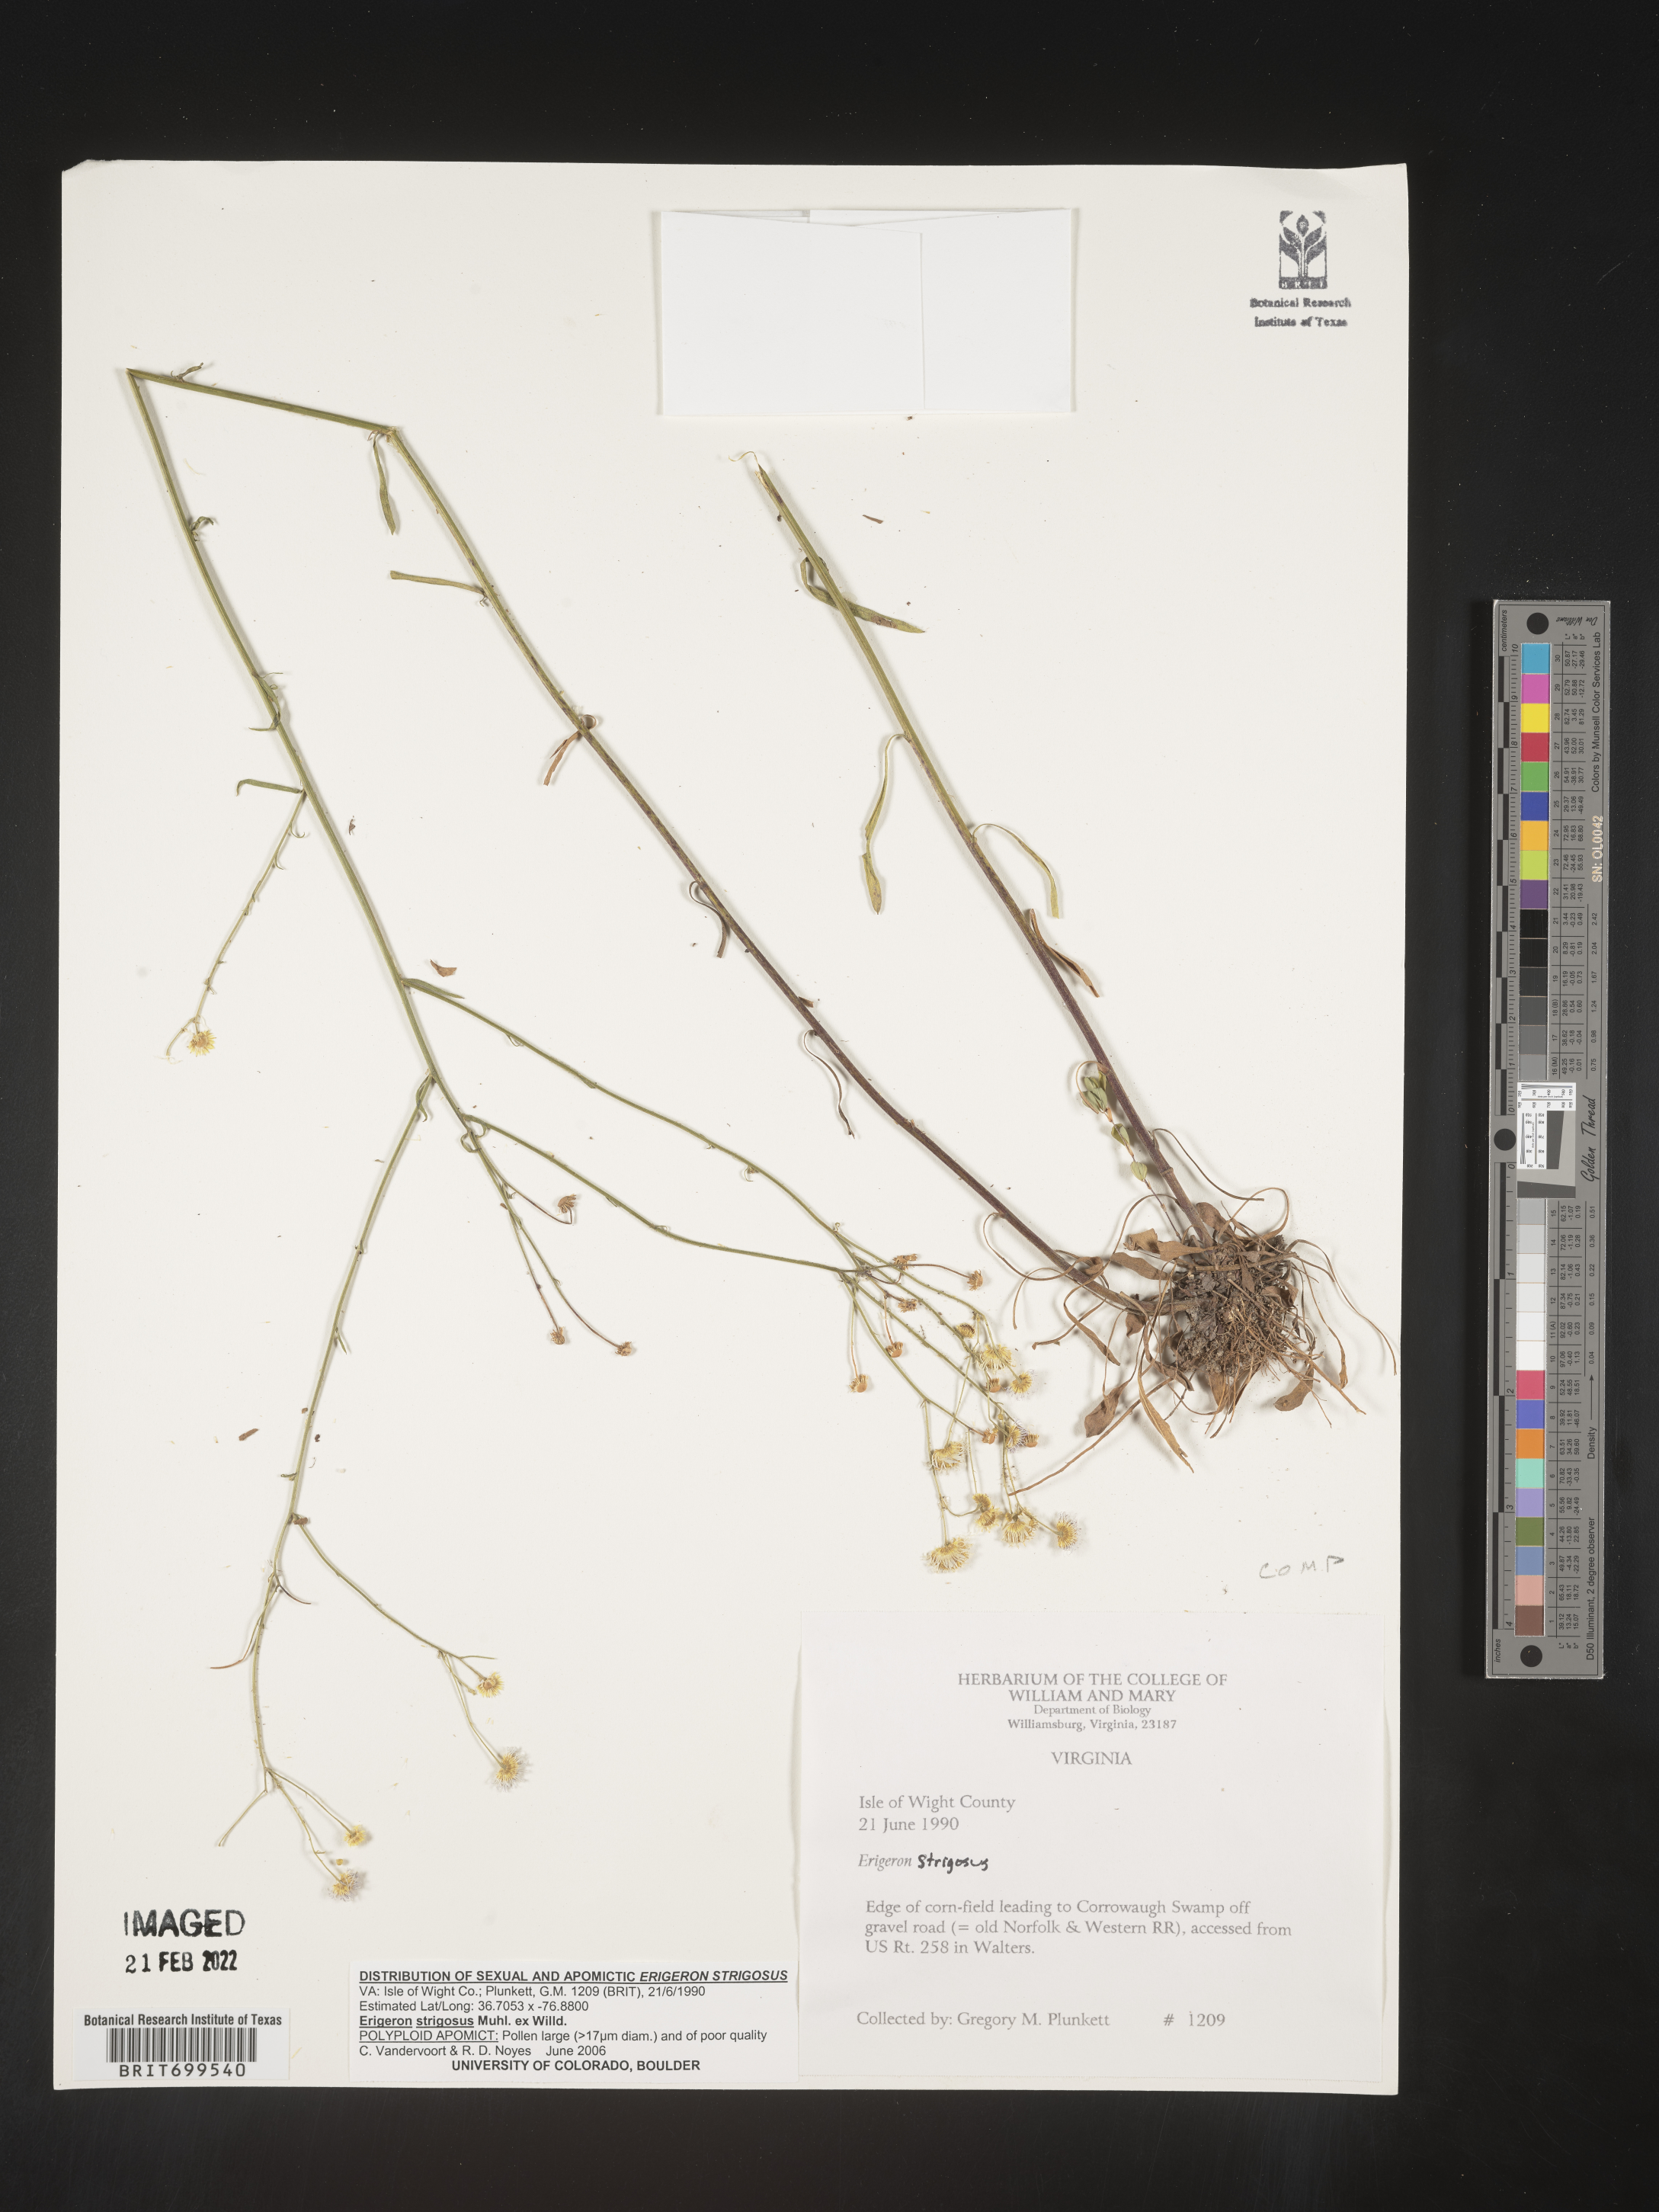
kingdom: Plantae
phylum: Tracheophyta
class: Magnoliopsida
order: Asterales
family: Asteraceae
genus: Erigeron
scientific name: Erigeron strigosus
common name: Common eastern fleabane
